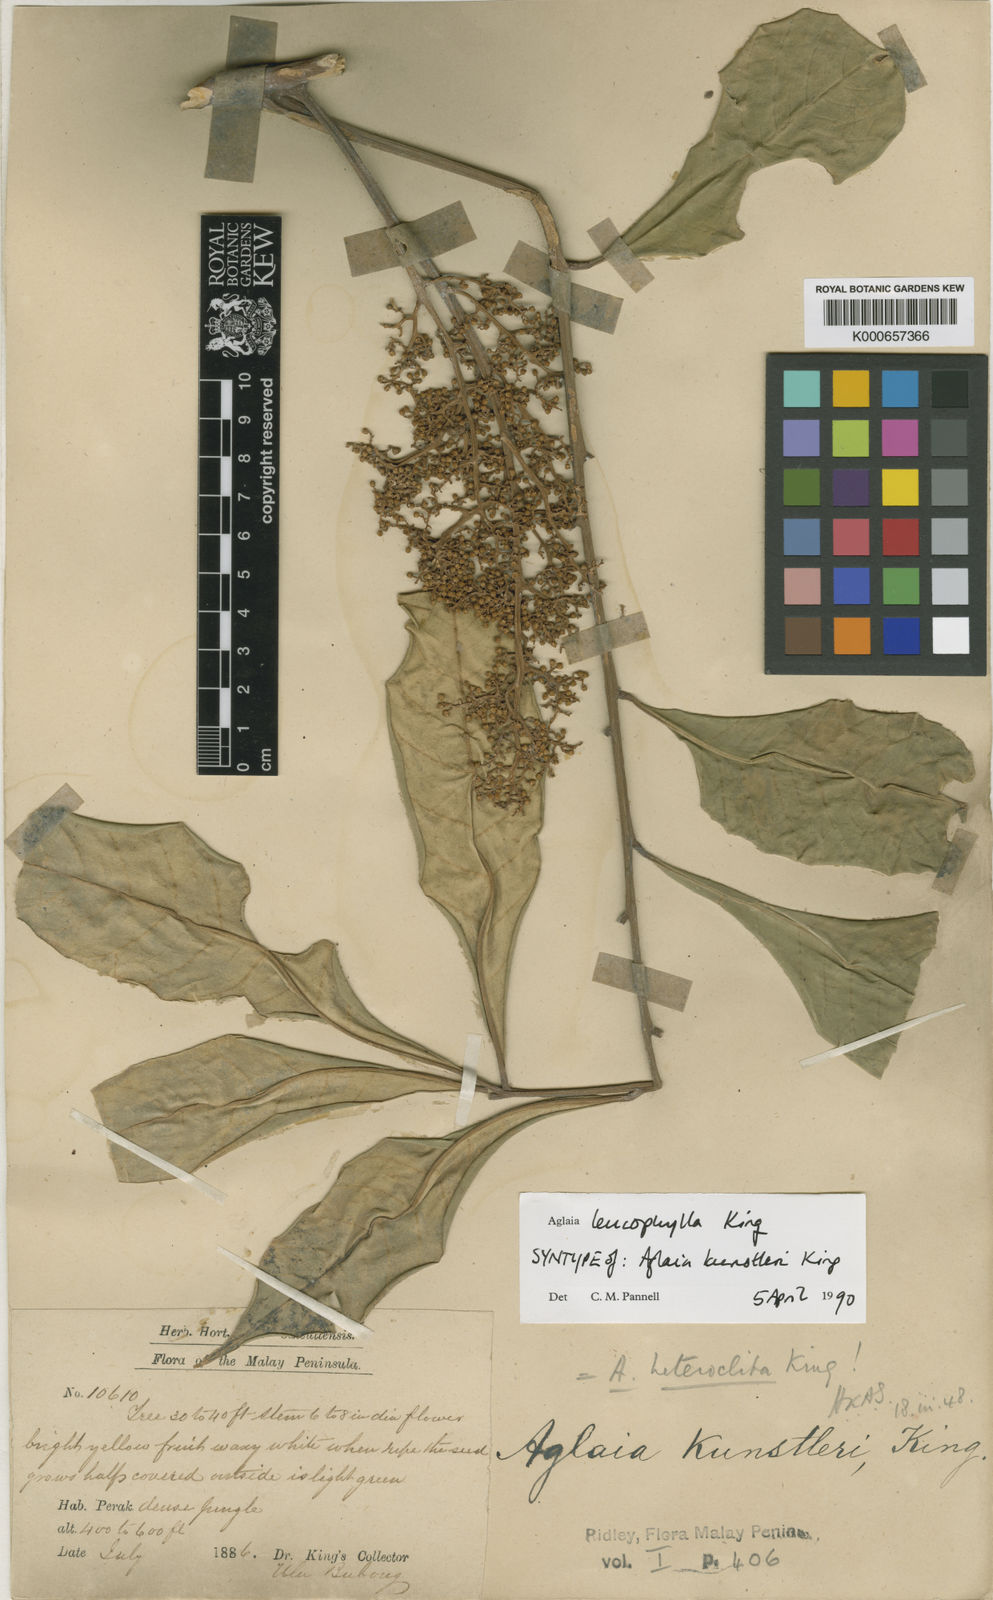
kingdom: Plantae
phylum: Tracheophyta
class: Magnoliopsida
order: Sapindales
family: Meliaceae
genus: Aglaia
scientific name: Aglaia leucophylla
